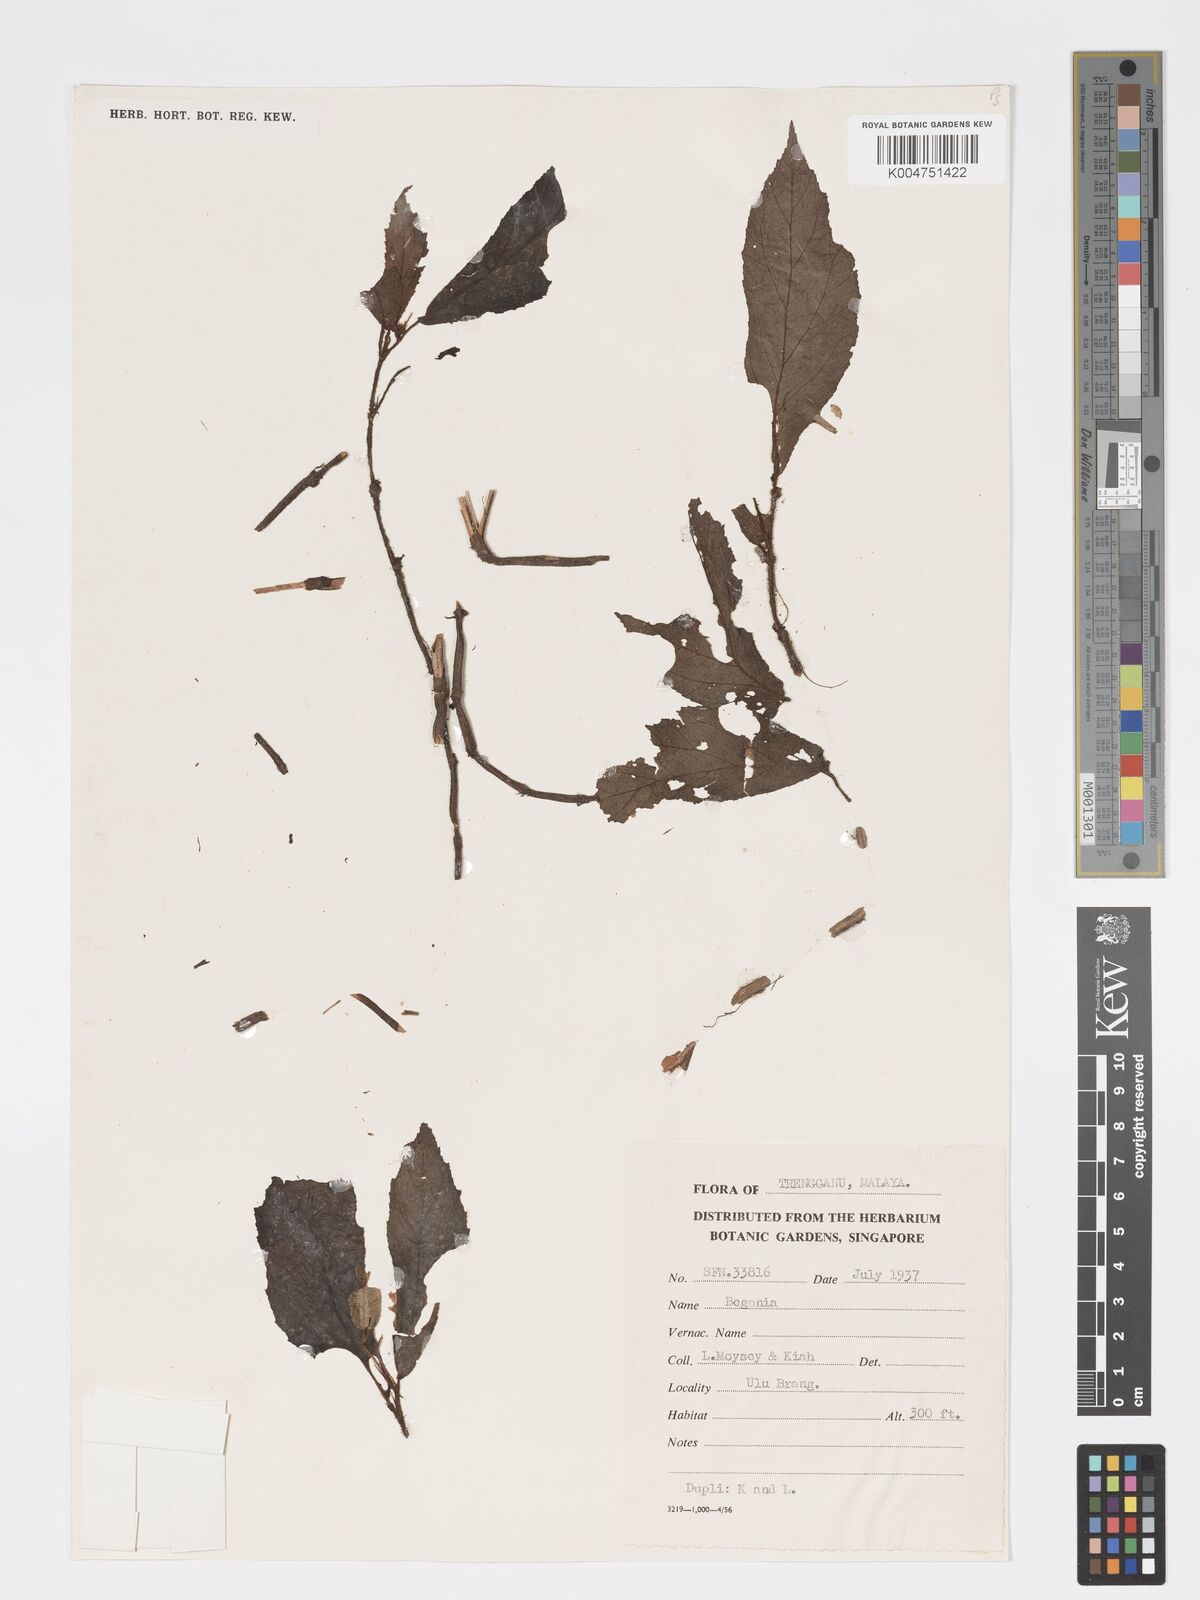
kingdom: Plantae
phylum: Tracheophyta
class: Magnoliopsida
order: Cucurbitales
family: Begoniaceae
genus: Begonia
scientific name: Begonia barbellata
